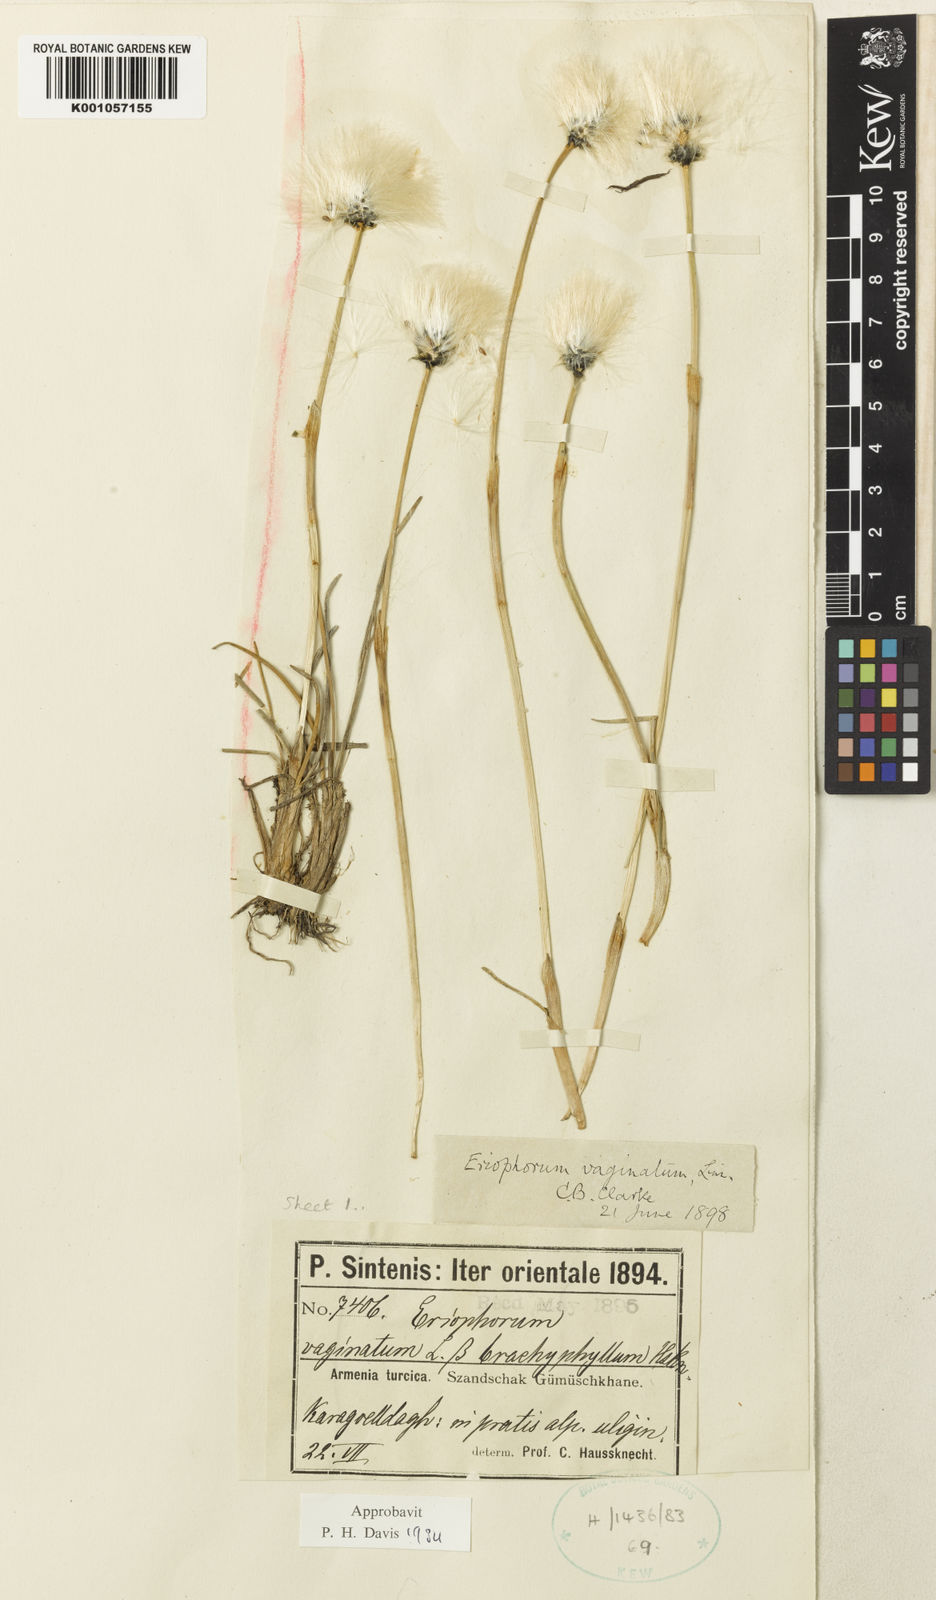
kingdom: Plantae
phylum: Tracheophyta
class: Liliopsida
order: Poales
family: Cyperaceae
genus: Eriophorum
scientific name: Eriophorum vaginatum
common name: Hare's-tail cottongrass
